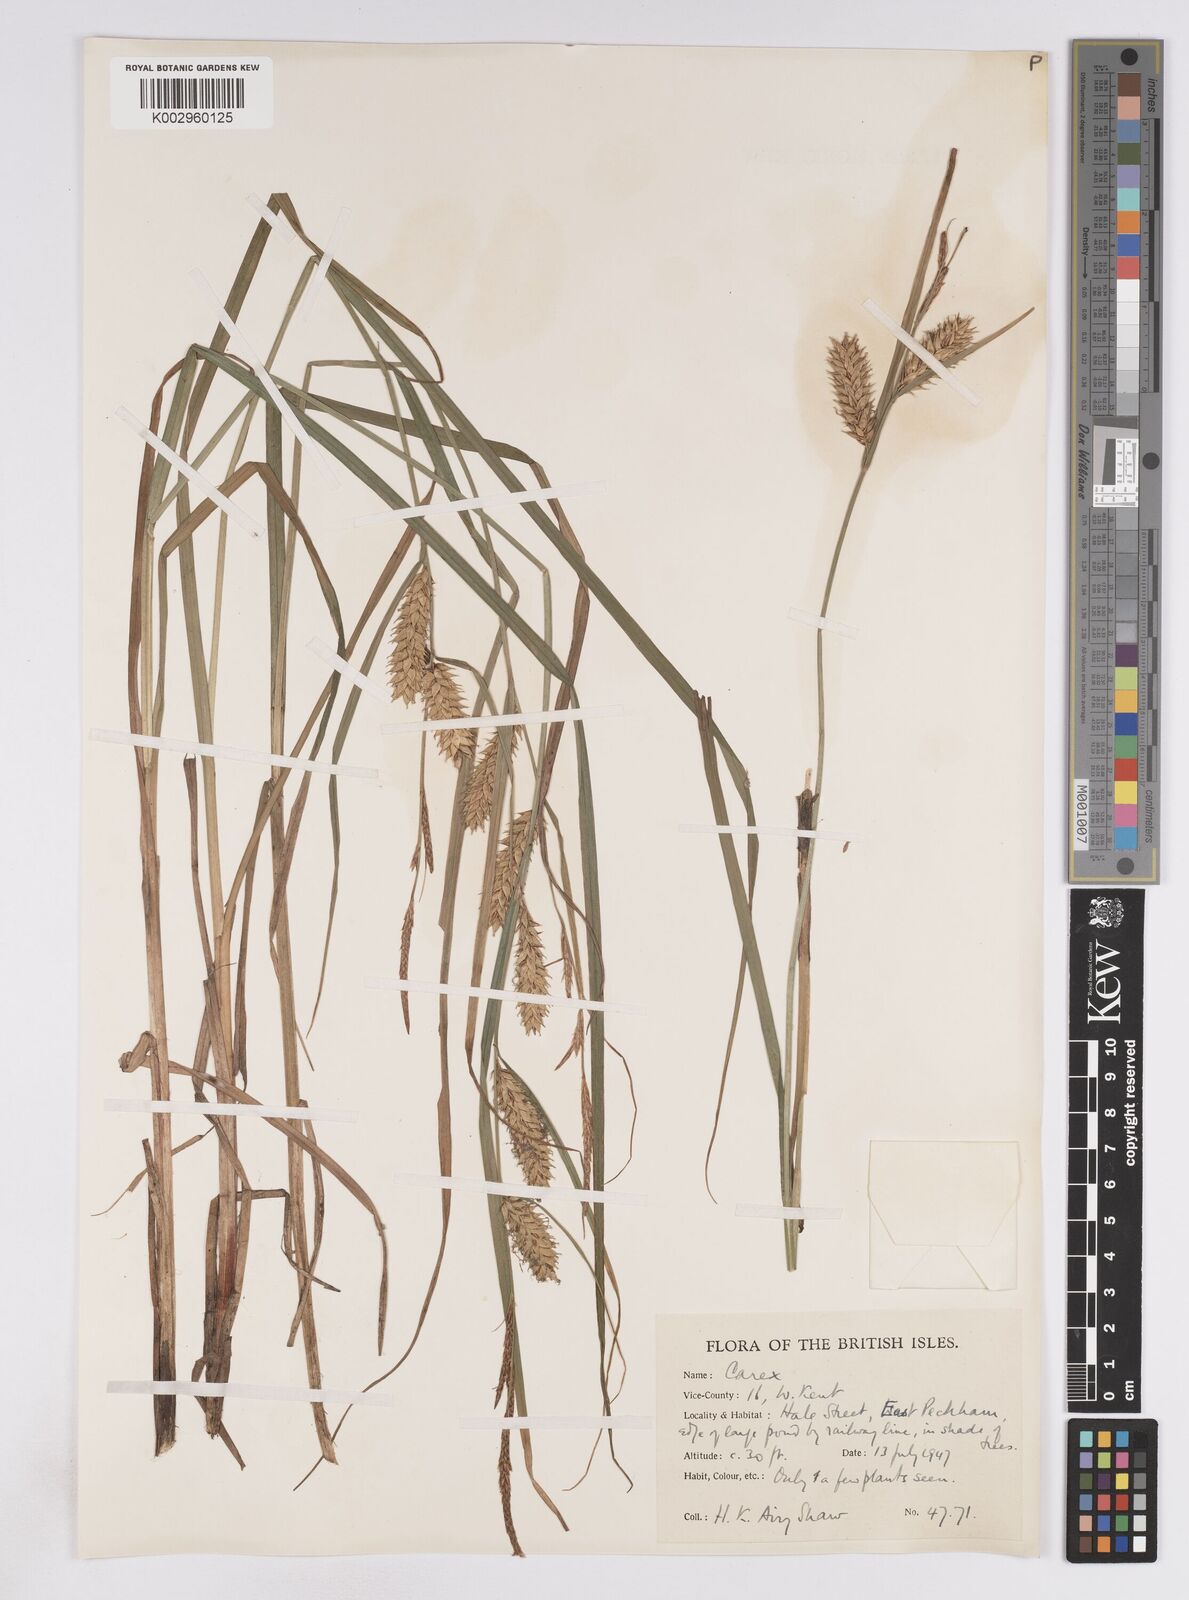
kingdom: Plantae
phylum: Tracheophyta
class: Liliopsida
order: Poales
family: Cyperaceae
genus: Carex
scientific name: Carex vesicaria
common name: Bladder-sedge
